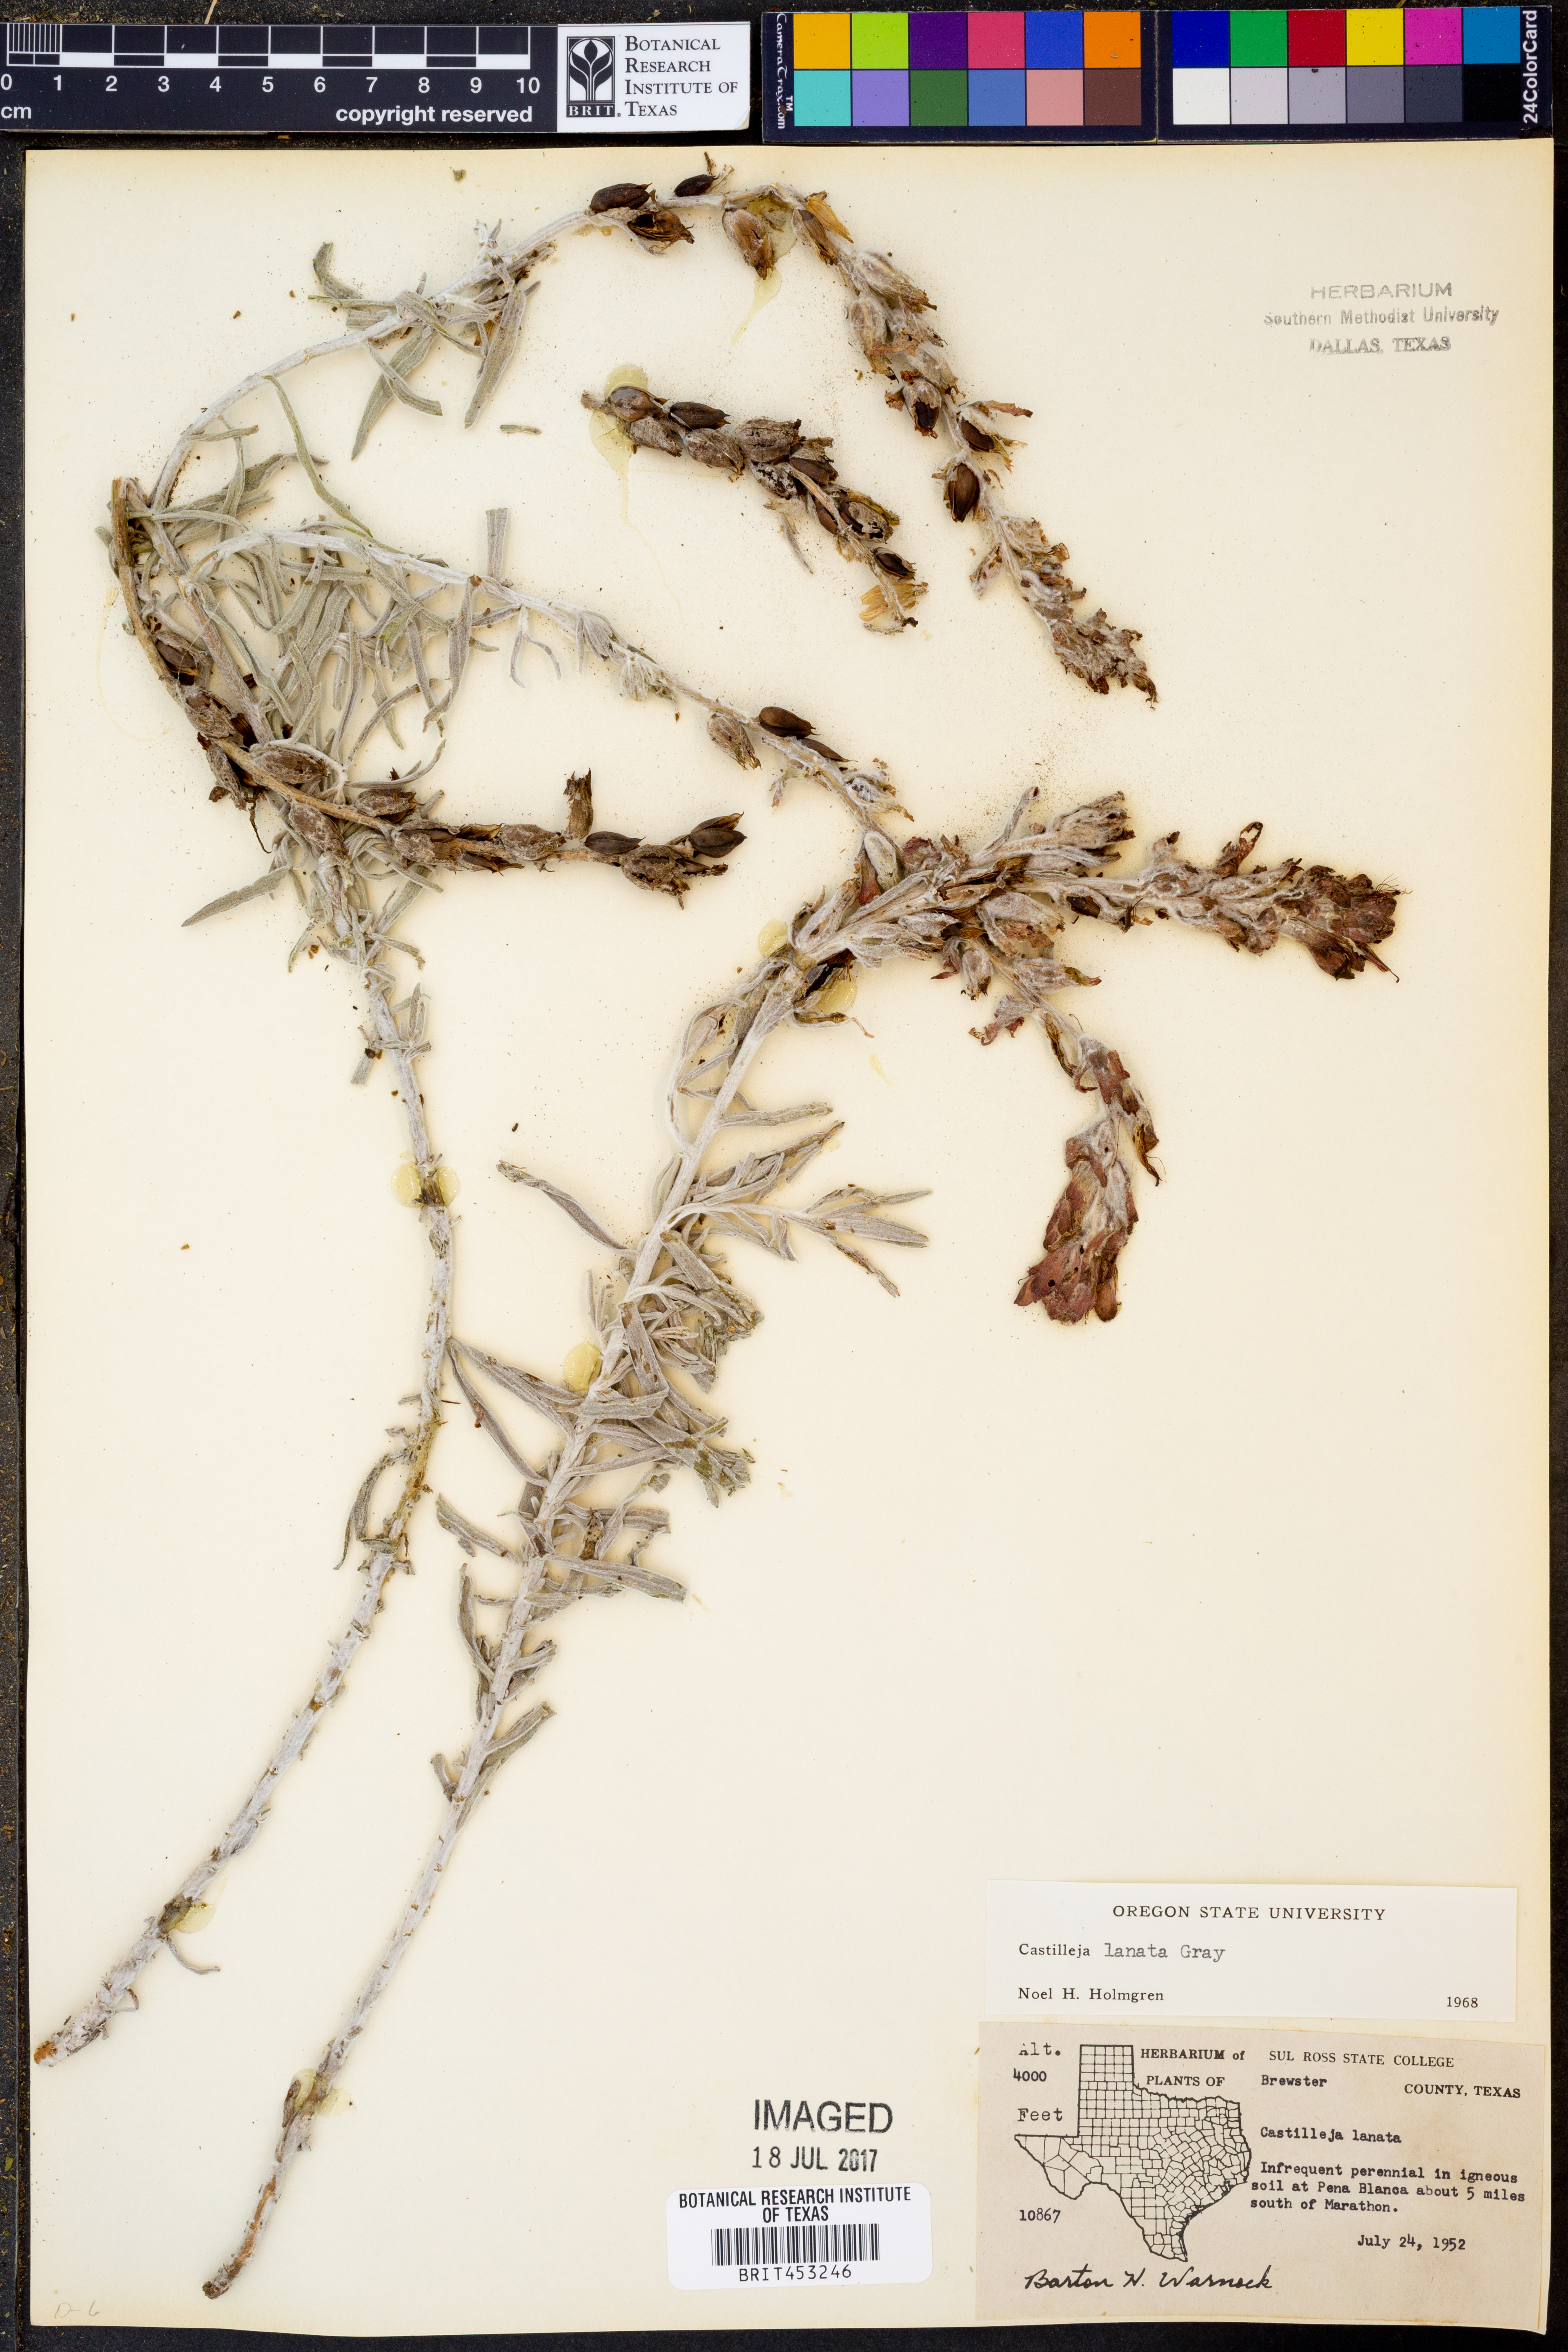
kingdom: Plantae
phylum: Tracheophyta
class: Magnoliopsida
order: Lamiales
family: Orobanchaceae
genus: Castilleja
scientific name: Castilleja lanata
